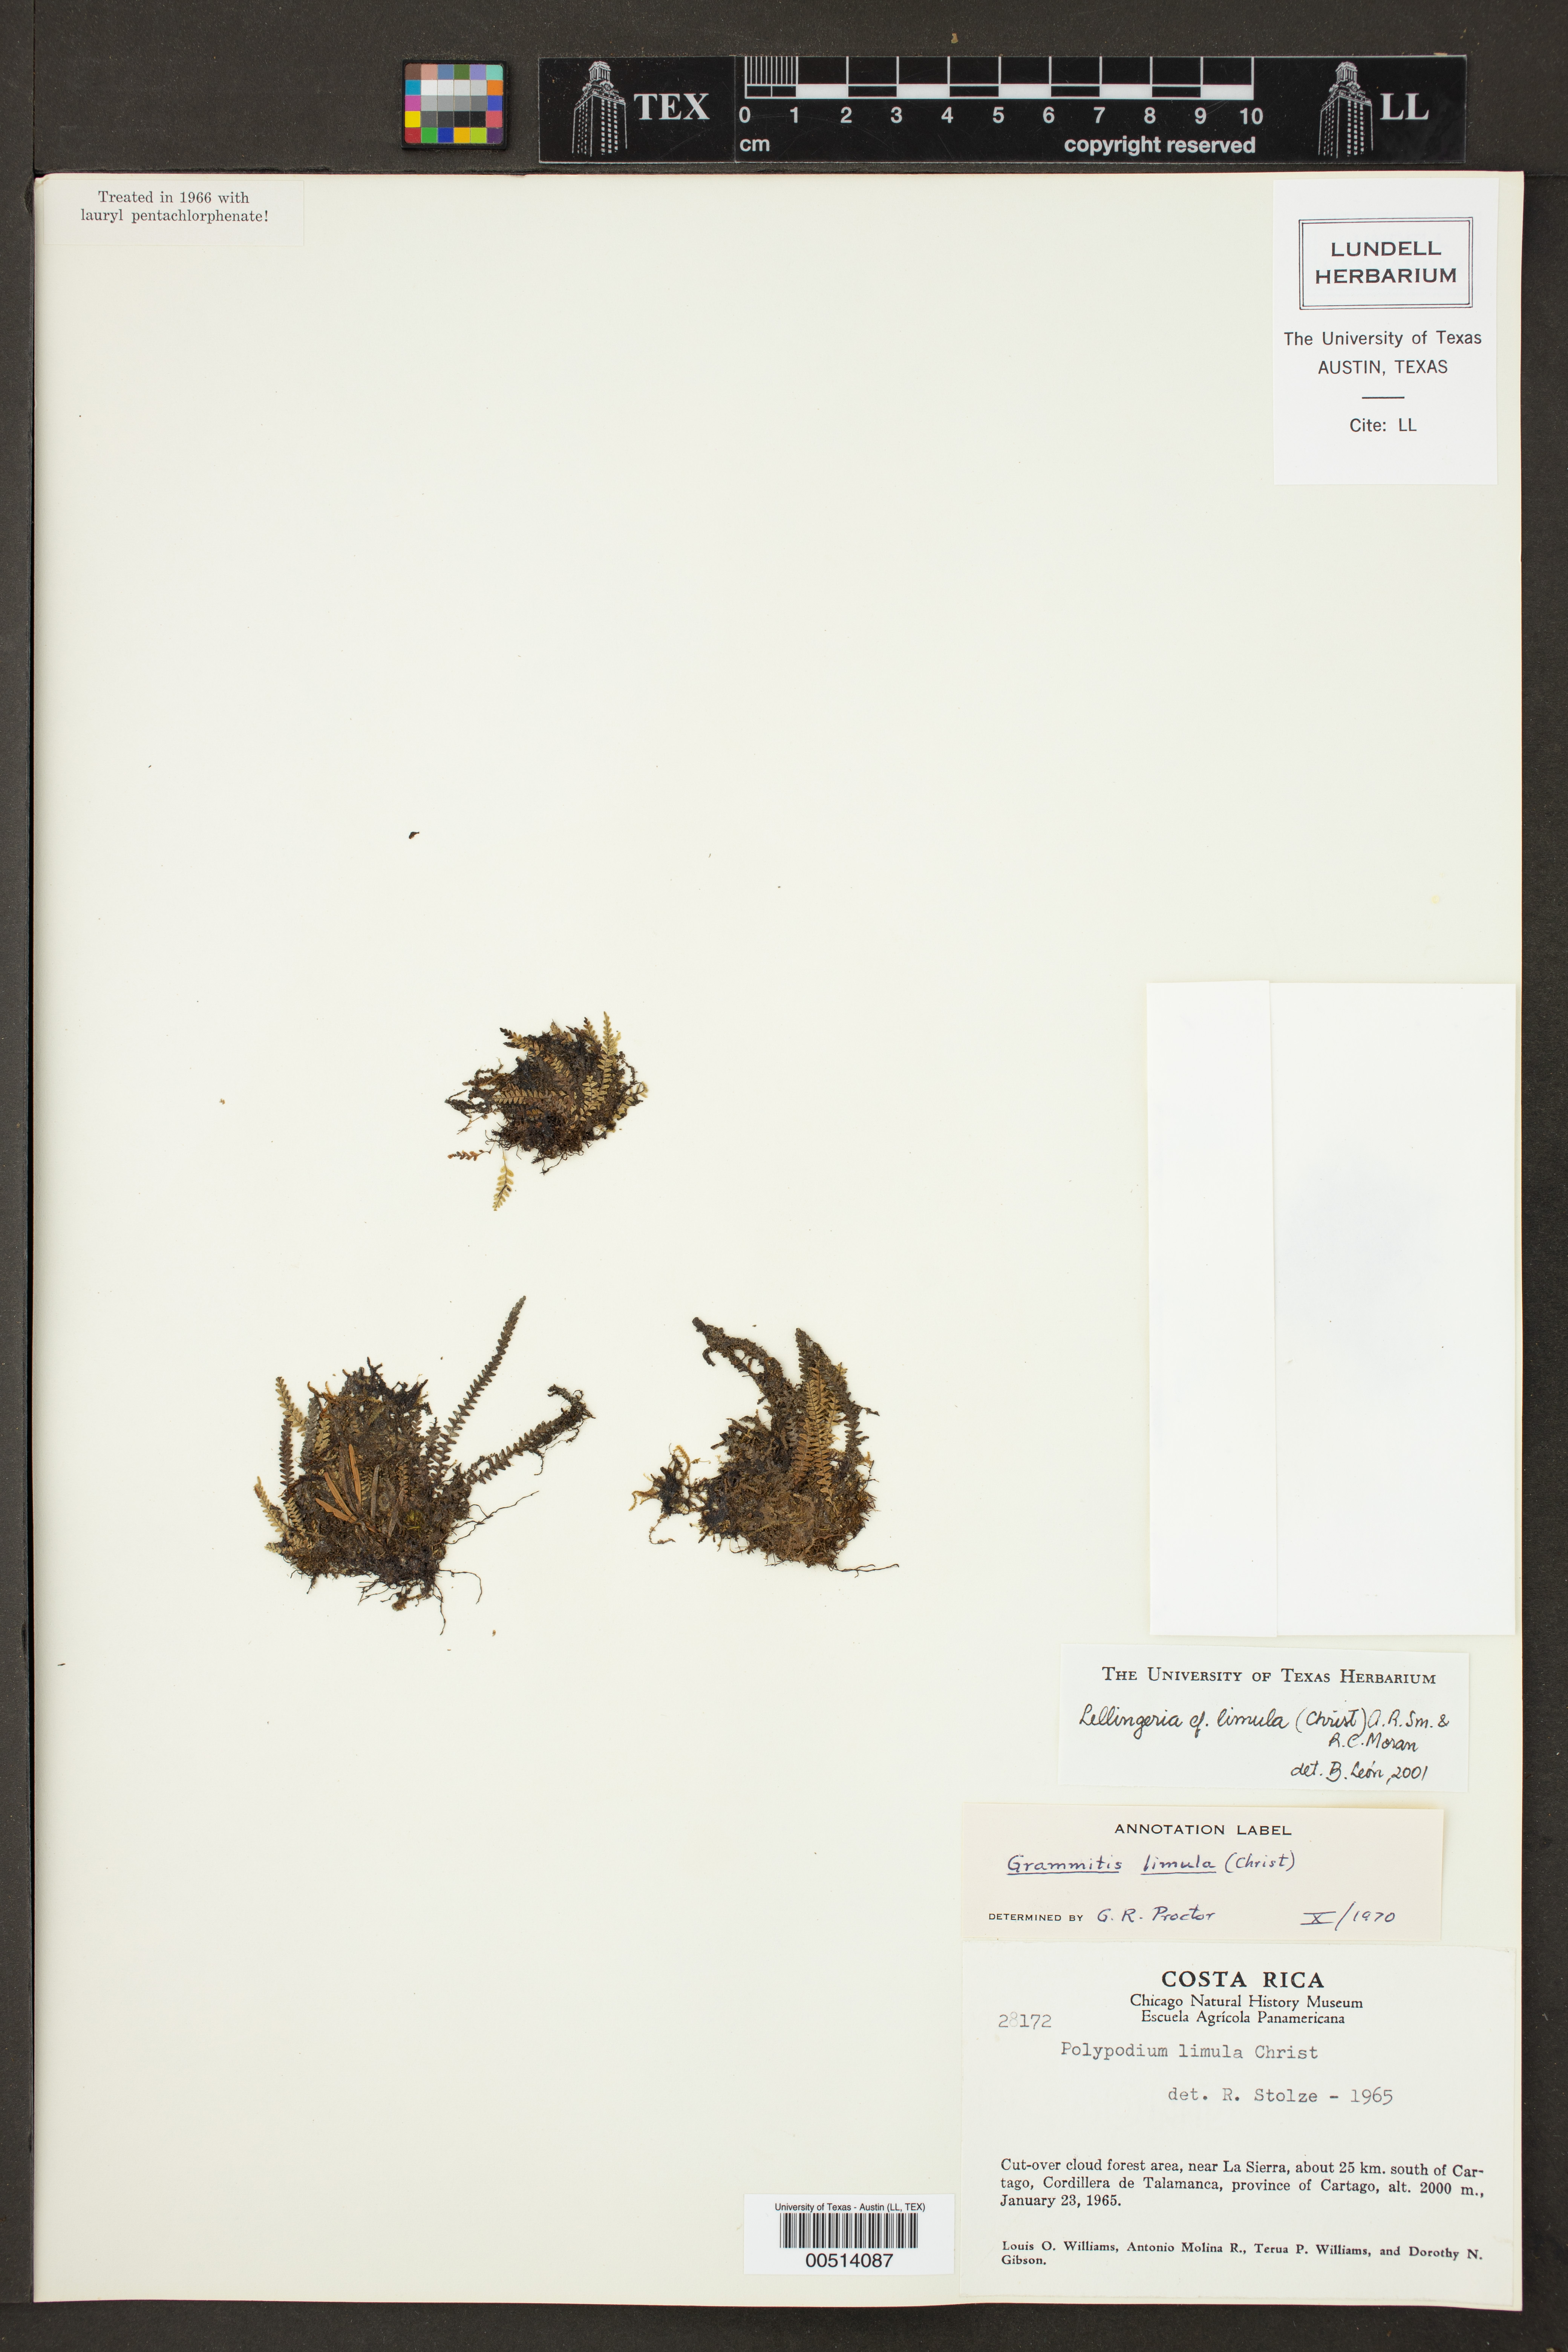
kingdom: Plantae
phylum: Tracheophyta
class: Polypodiopsida
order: Polypodiales
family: Polypodiaceae
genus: Stenogrammitis
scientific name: Stenogrammitis limula
